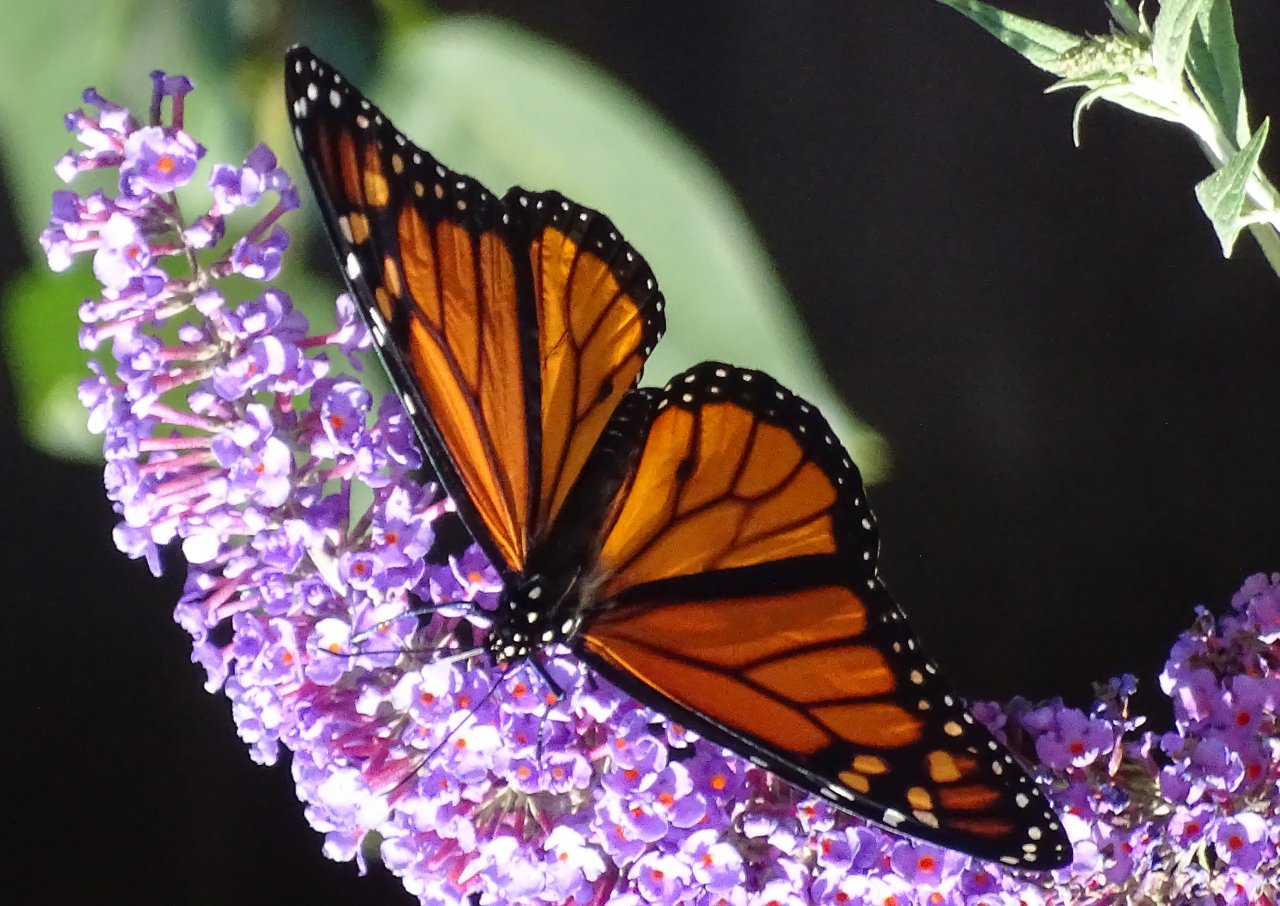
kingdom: Animalia
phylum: Arthropoda
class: Insecta
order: Lepidoptera
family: Nymphalidae
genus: Danaus
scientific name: Danaus plexippus
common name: Monarch
